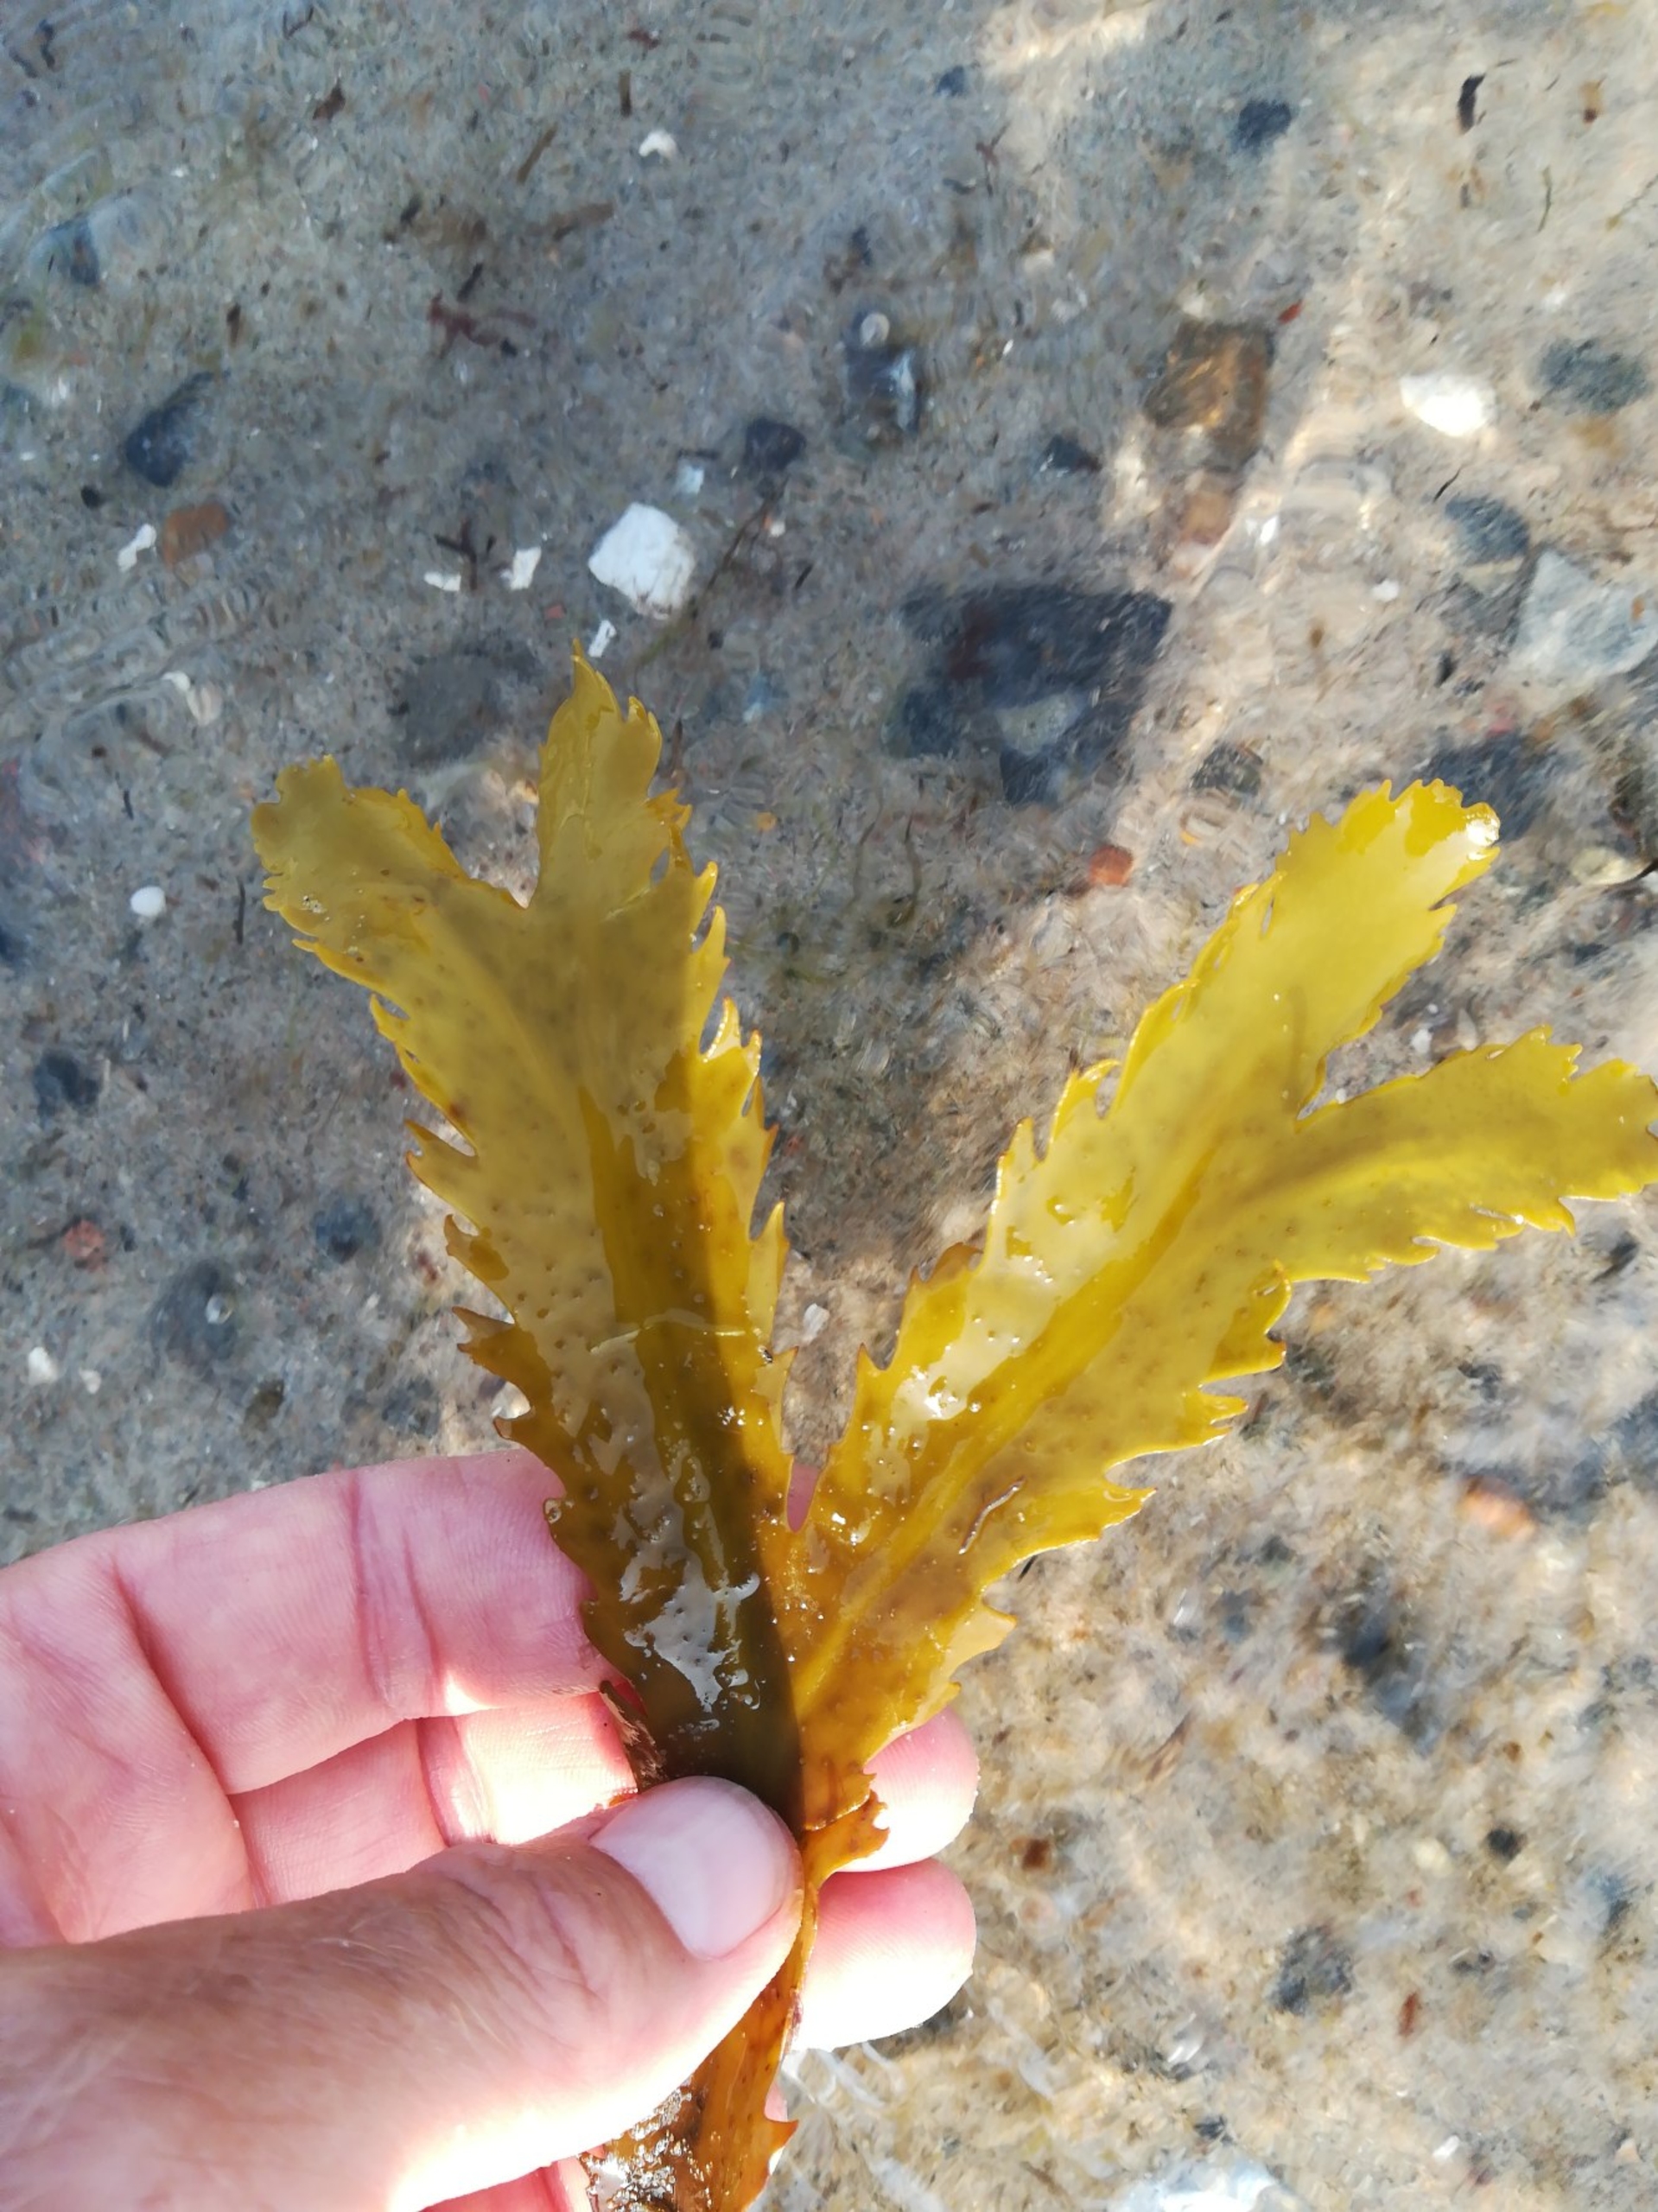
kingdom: Chromista
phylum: Ochrophyta
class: Phaeophyceae
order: Fucales
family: Fucaceae
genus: Fucus
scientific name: Fucus serratus
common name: Savtang
